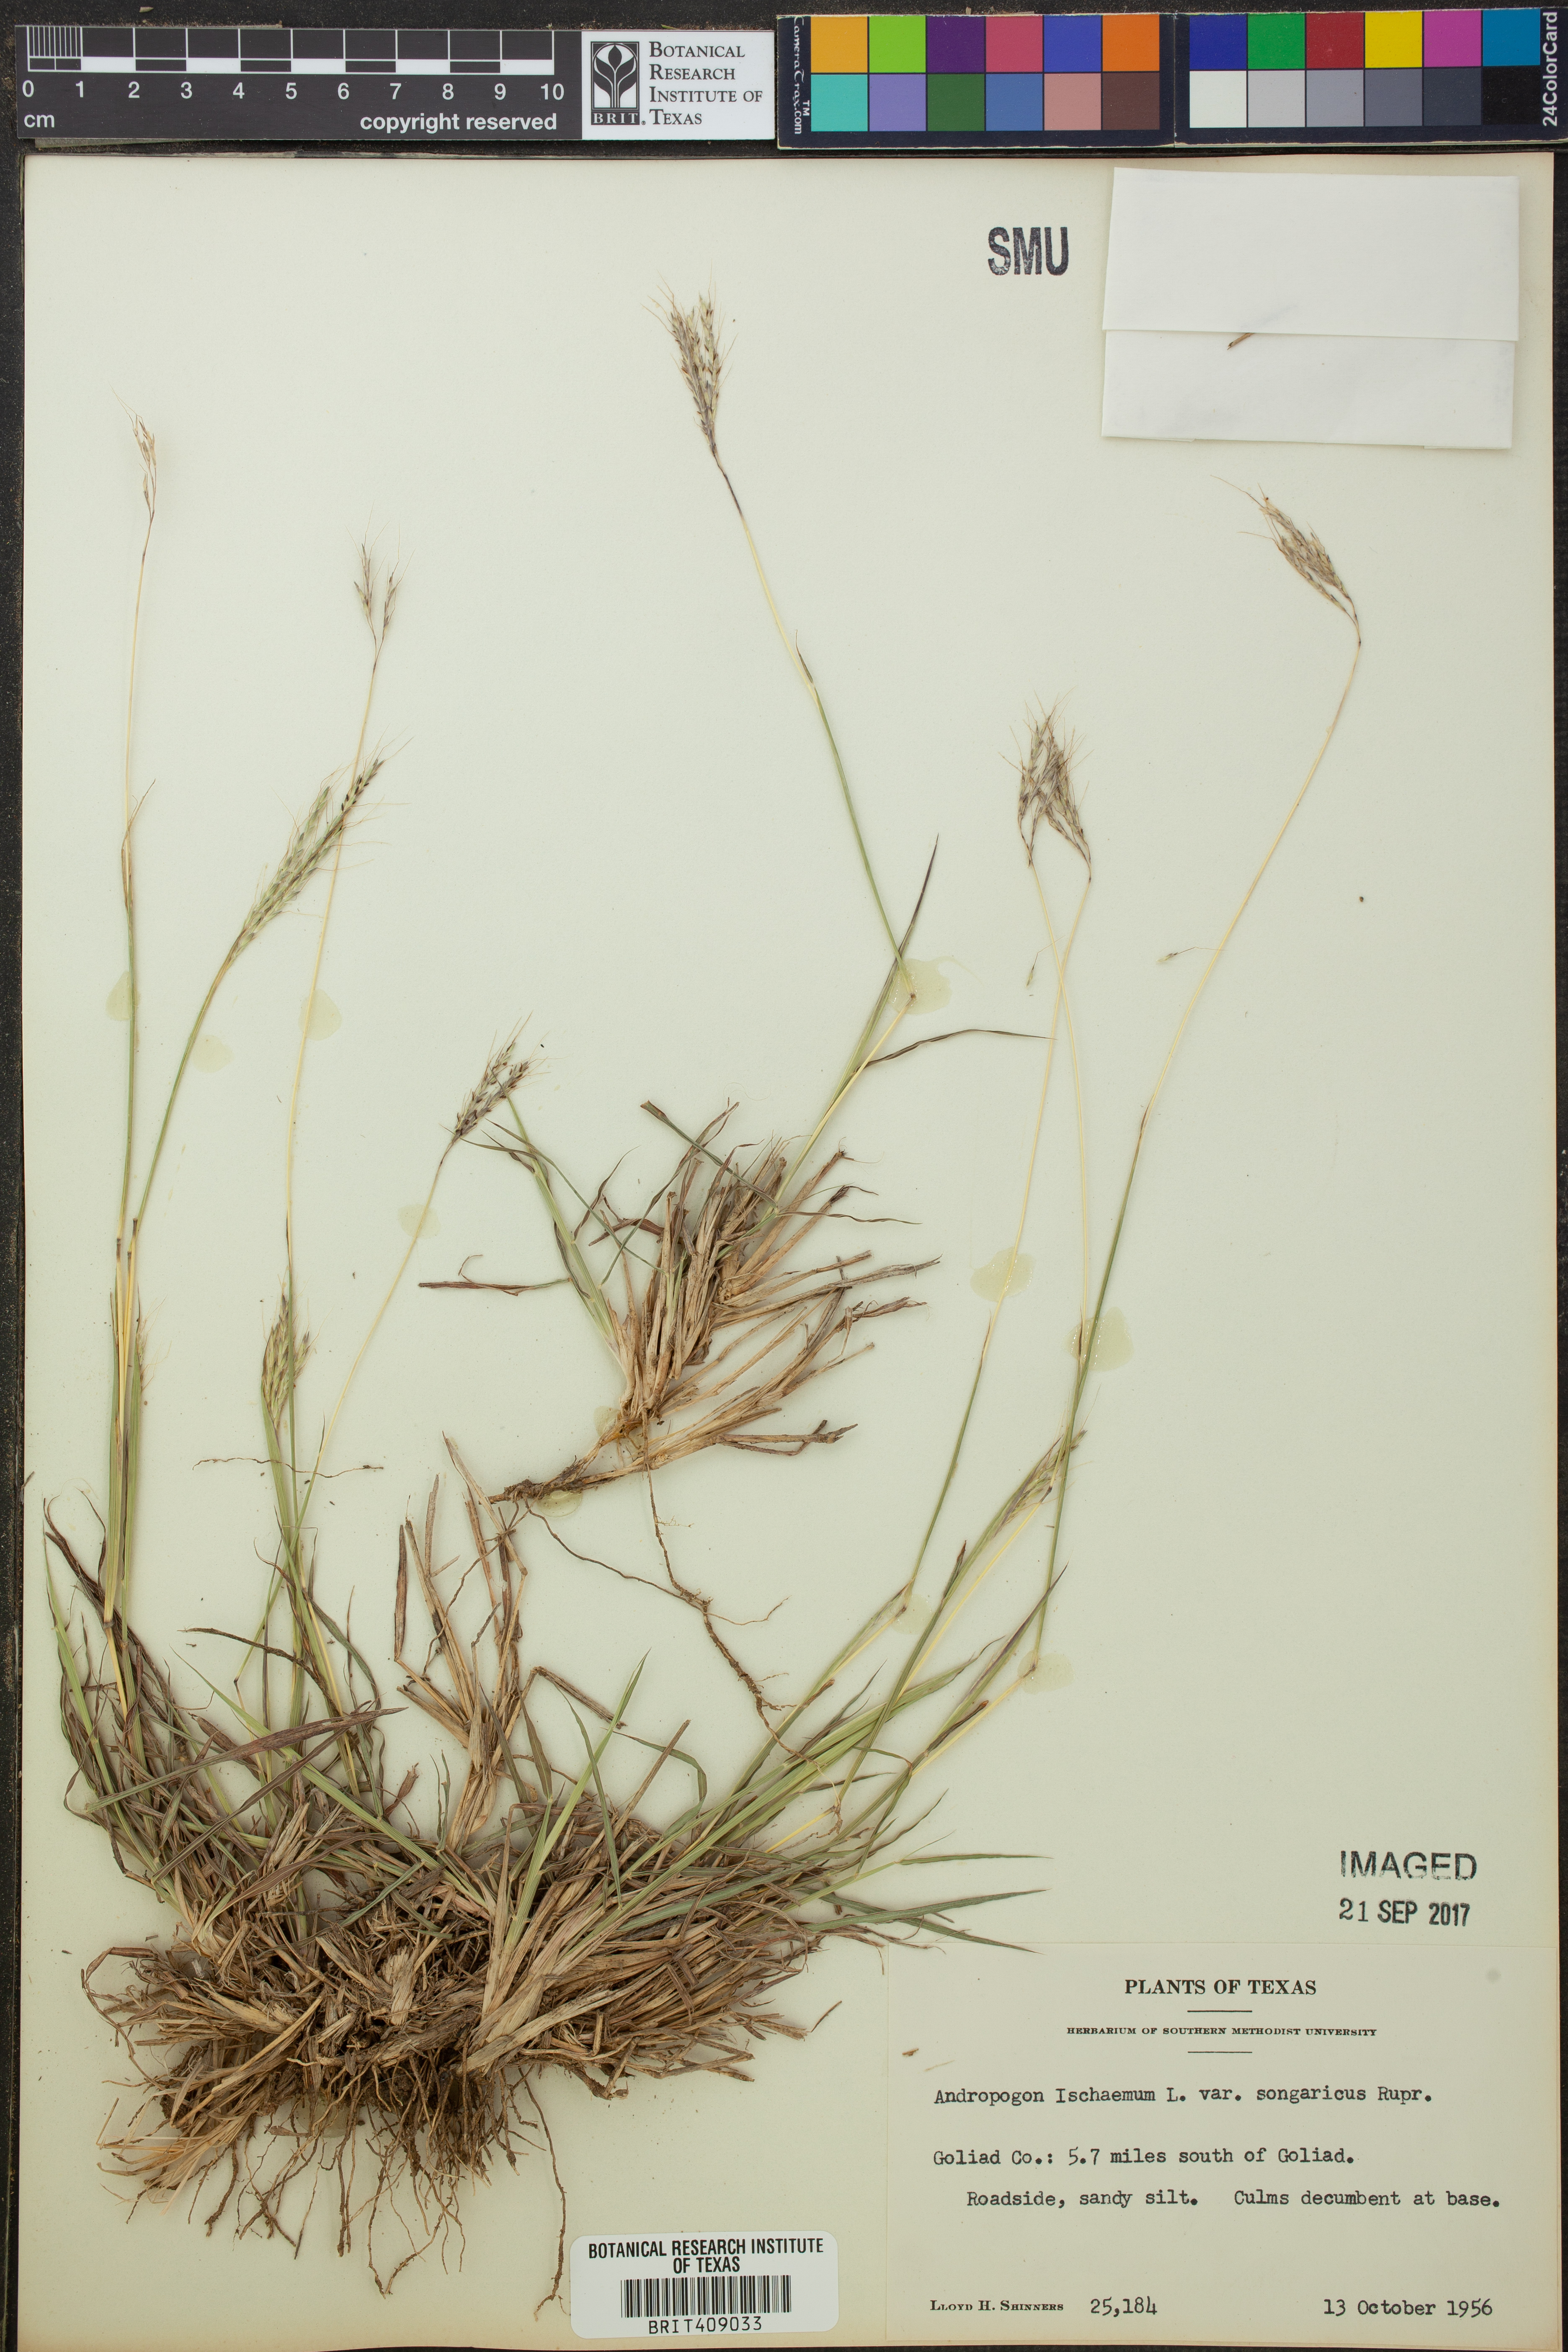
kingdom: Plantae
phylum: Tracheophyta
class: Liliopsida
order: Poales
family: Poaceae
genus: Bothriochloa
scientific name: Bothriochloa ischaemum
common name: Yellow bluestem
